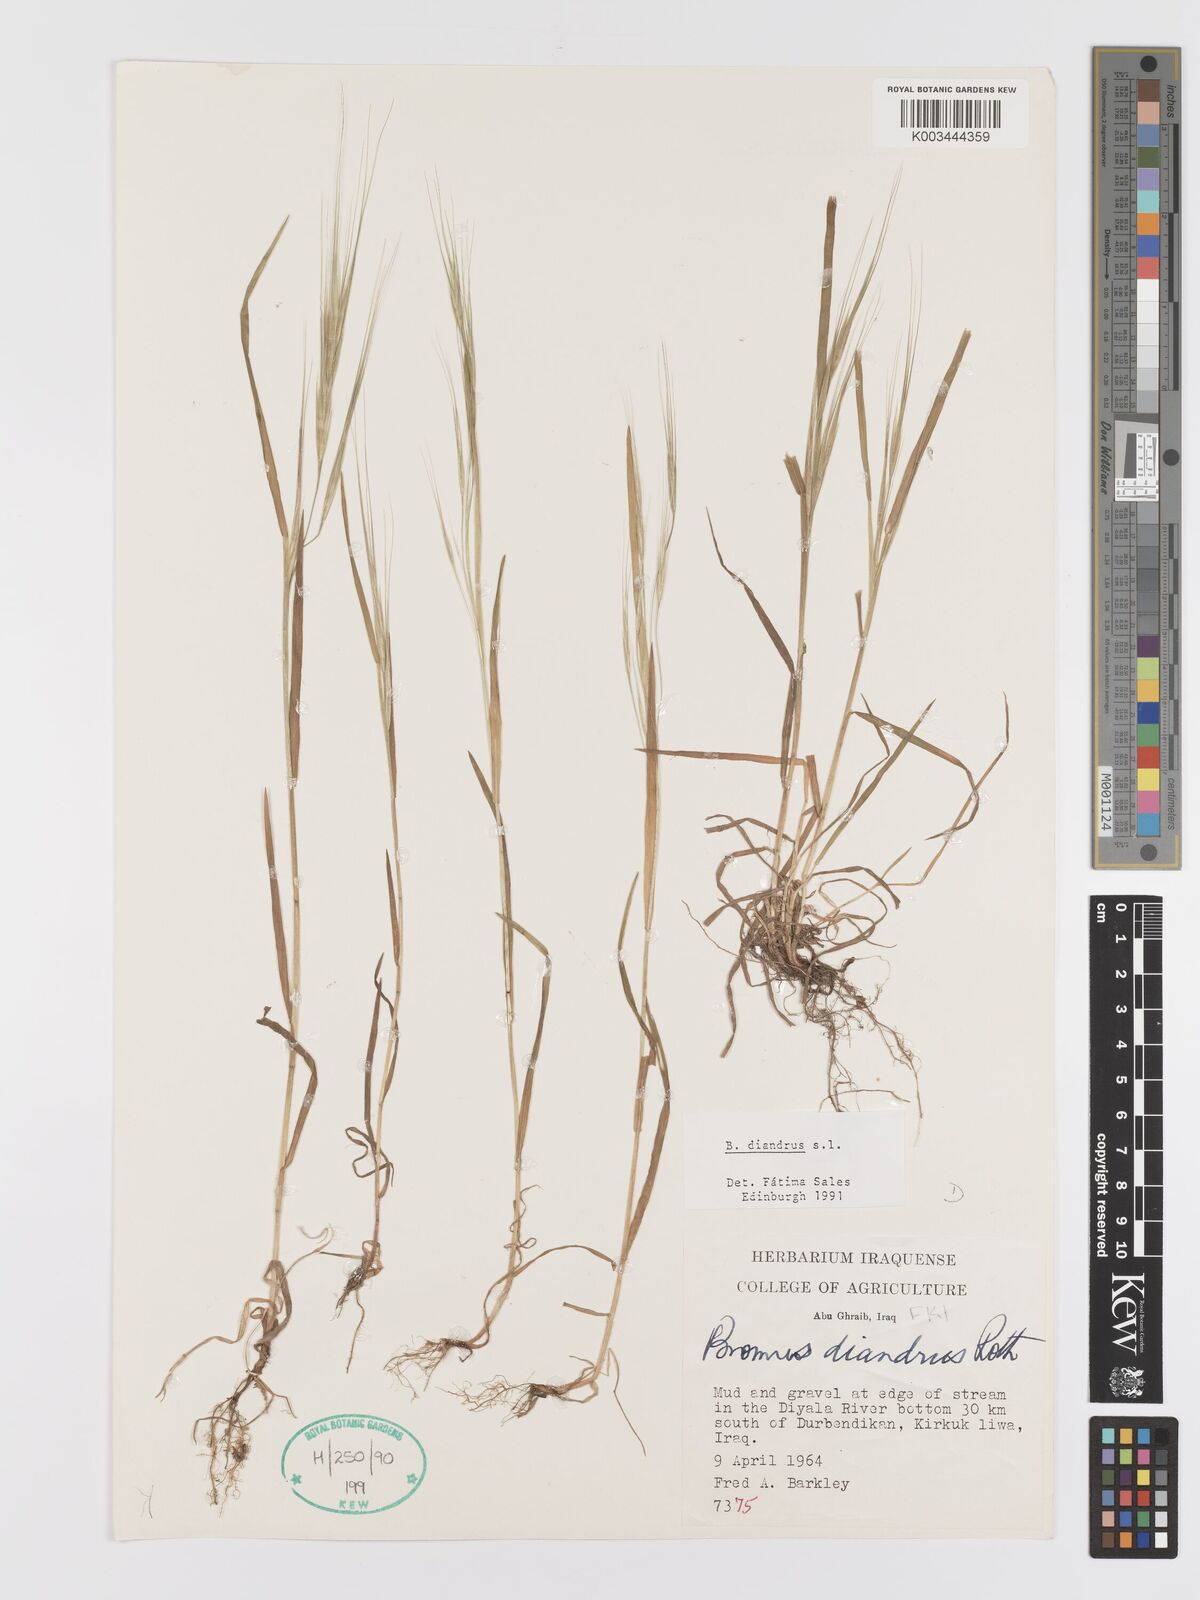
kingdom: Plantae
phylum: Tracheophyta
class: Liliopsida
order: Poales
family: Poaceae
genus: Bromus
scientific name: Bromus diandrus
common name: Ripgut brome
